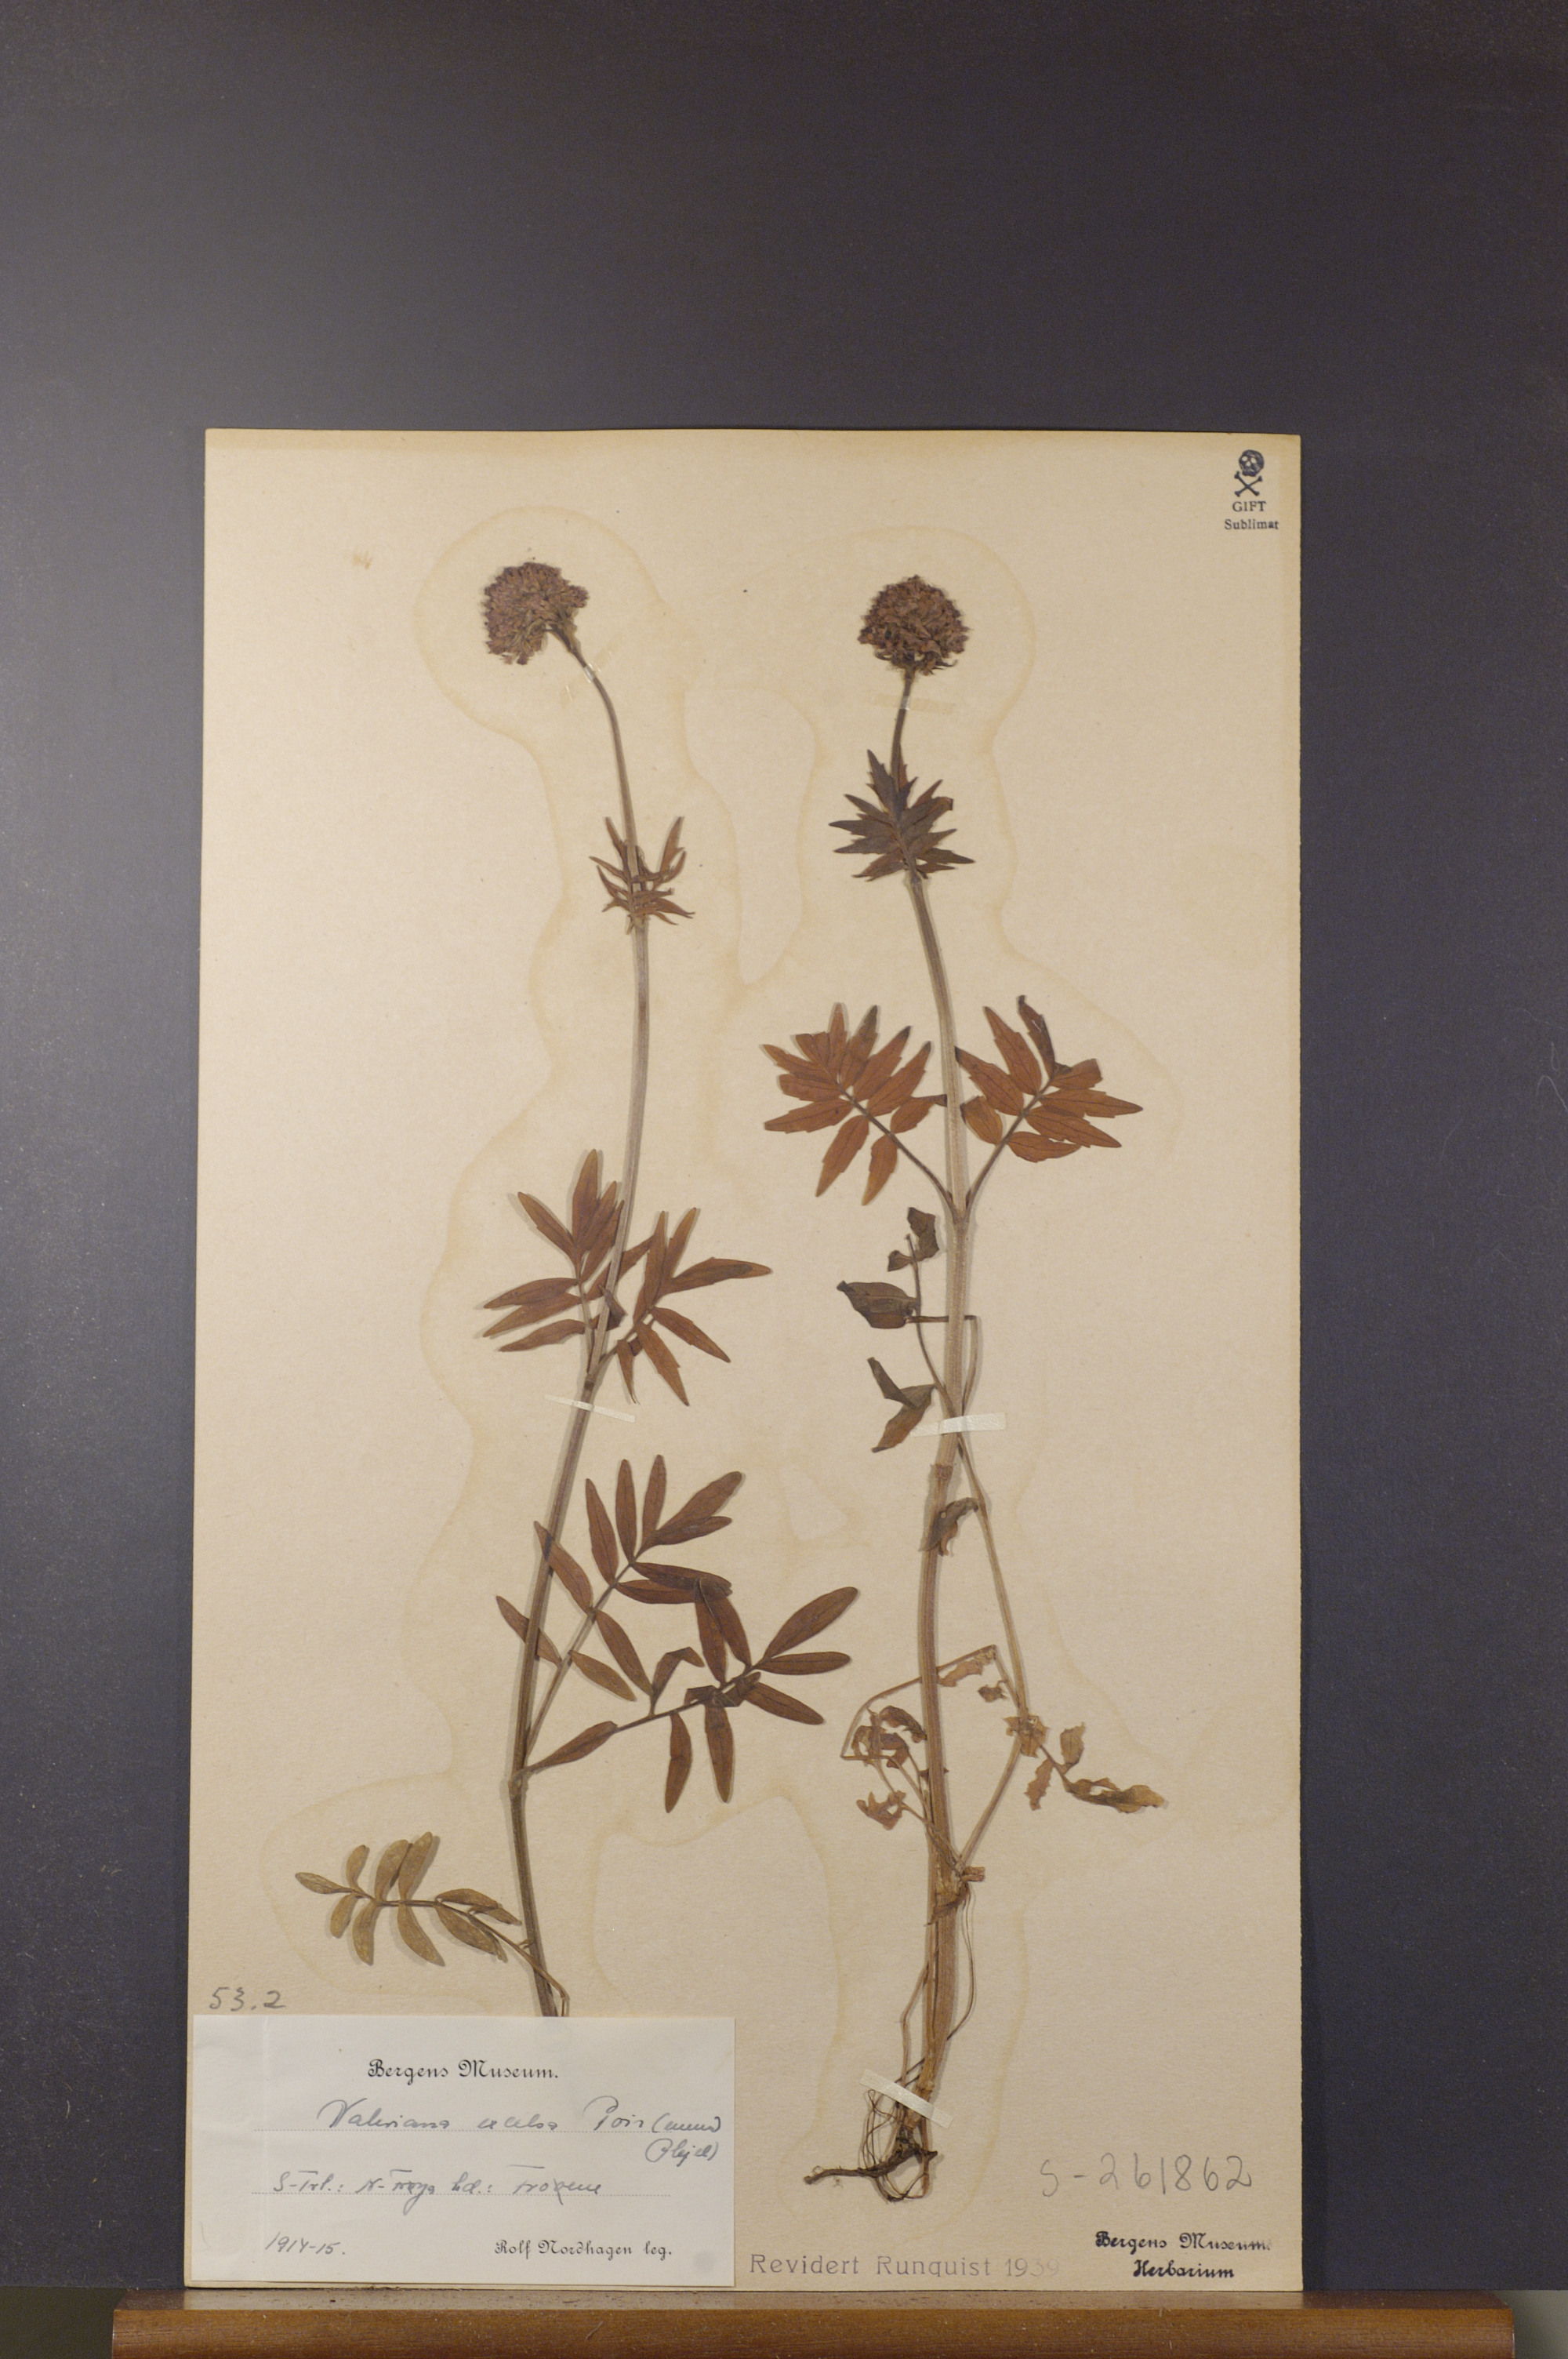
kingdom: Plantae
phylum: Tracheophyta
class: Magnoliopsida
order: Dipsacales
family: Caprifoliaceae
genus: Valeriana
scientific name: Valeriana sambucifolia
